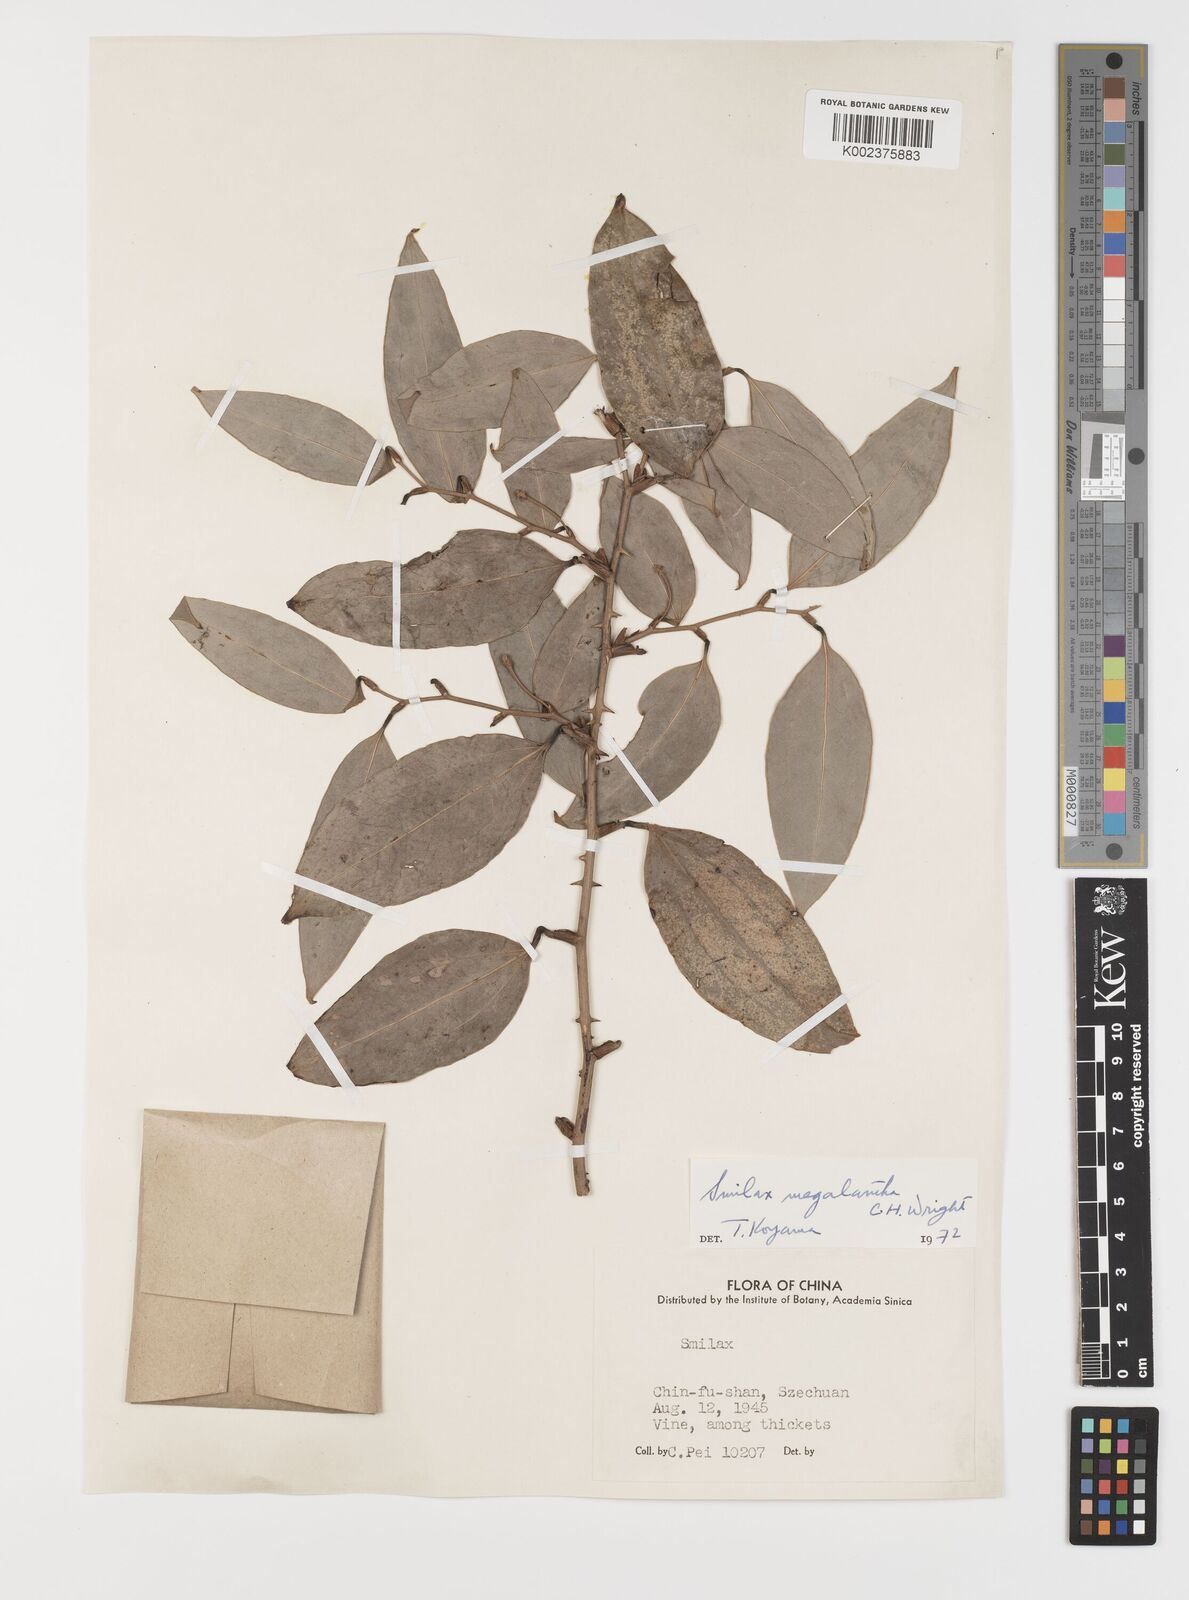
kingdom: Plantae
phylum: Tracheophyta
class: Liliopsida
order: Liliales
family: Smilacaceae
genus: Smilax
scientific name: Smilax megalantha
